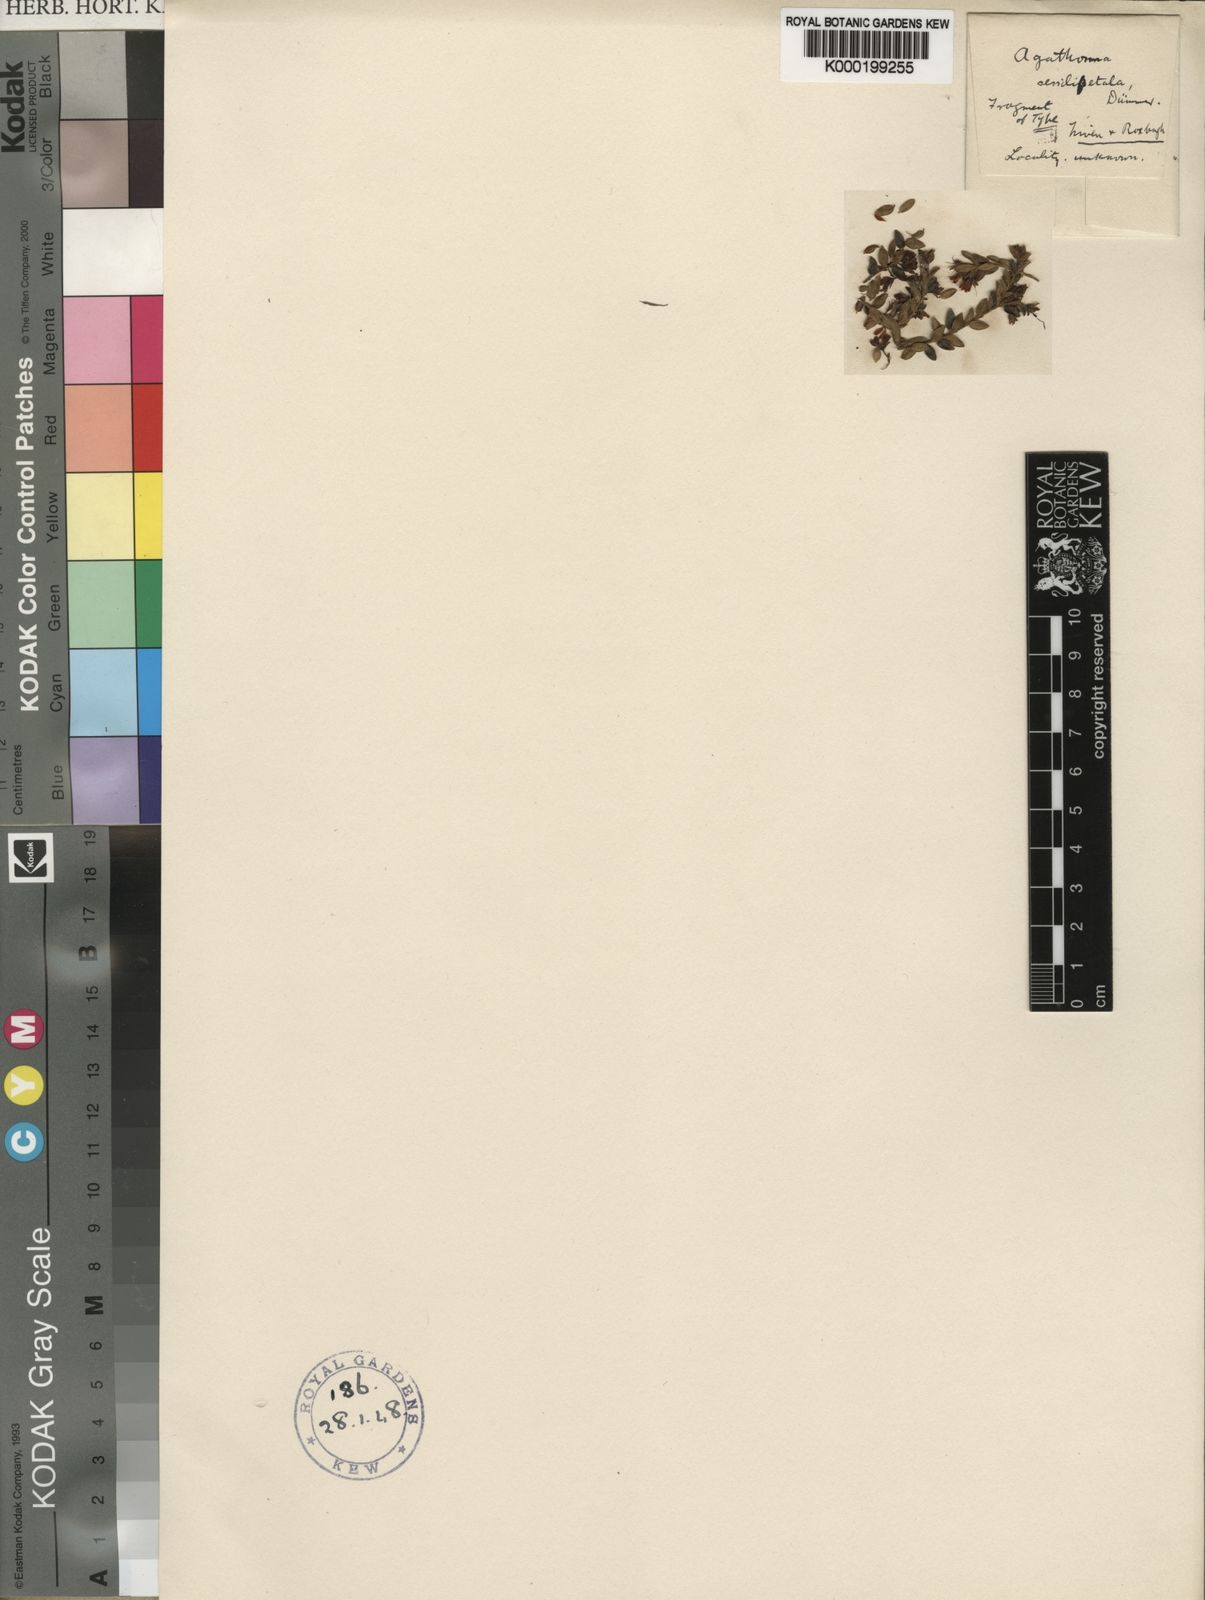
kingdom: Plantae
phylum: Tracheophyta
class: Magnoliopsida
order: Sapindales
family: Rutaceae
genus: Agathosma
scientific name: Agathosma planifolia
